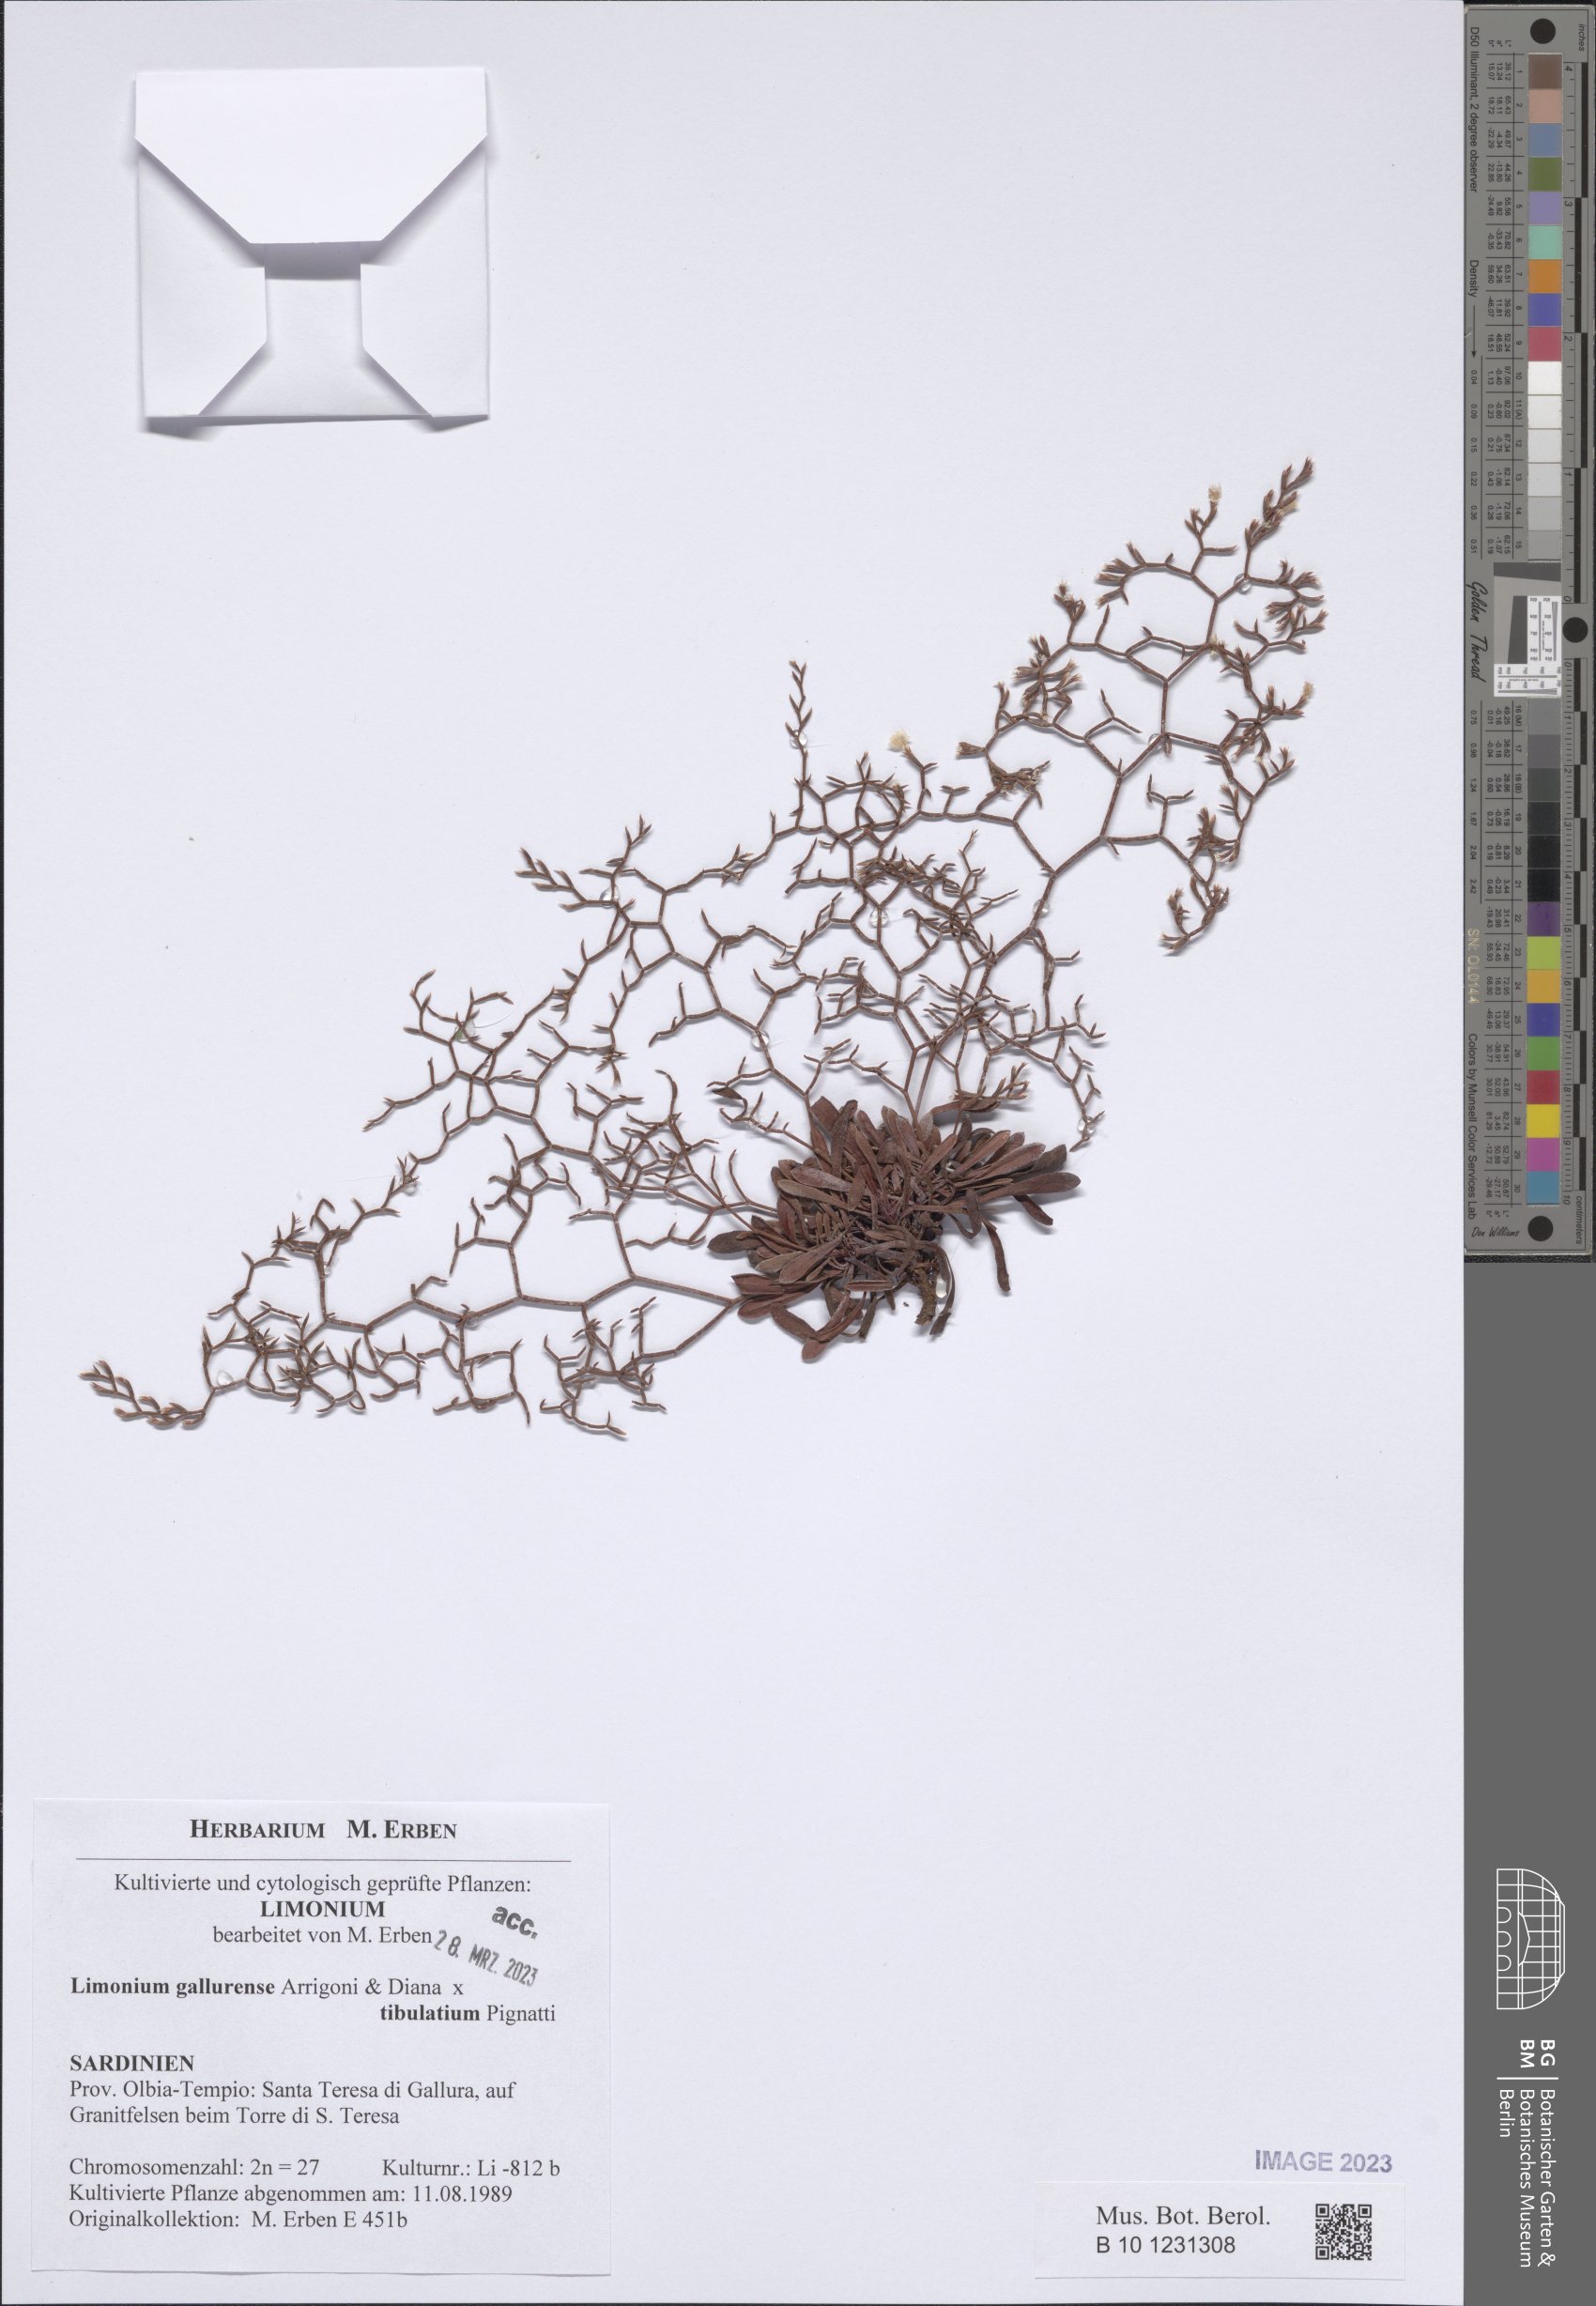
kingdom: Plantae
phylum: Tracheophyta
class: Magnoliopsida
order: Caryophyllales
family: Plumbaginaceae
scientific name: Plumbaginaceae
